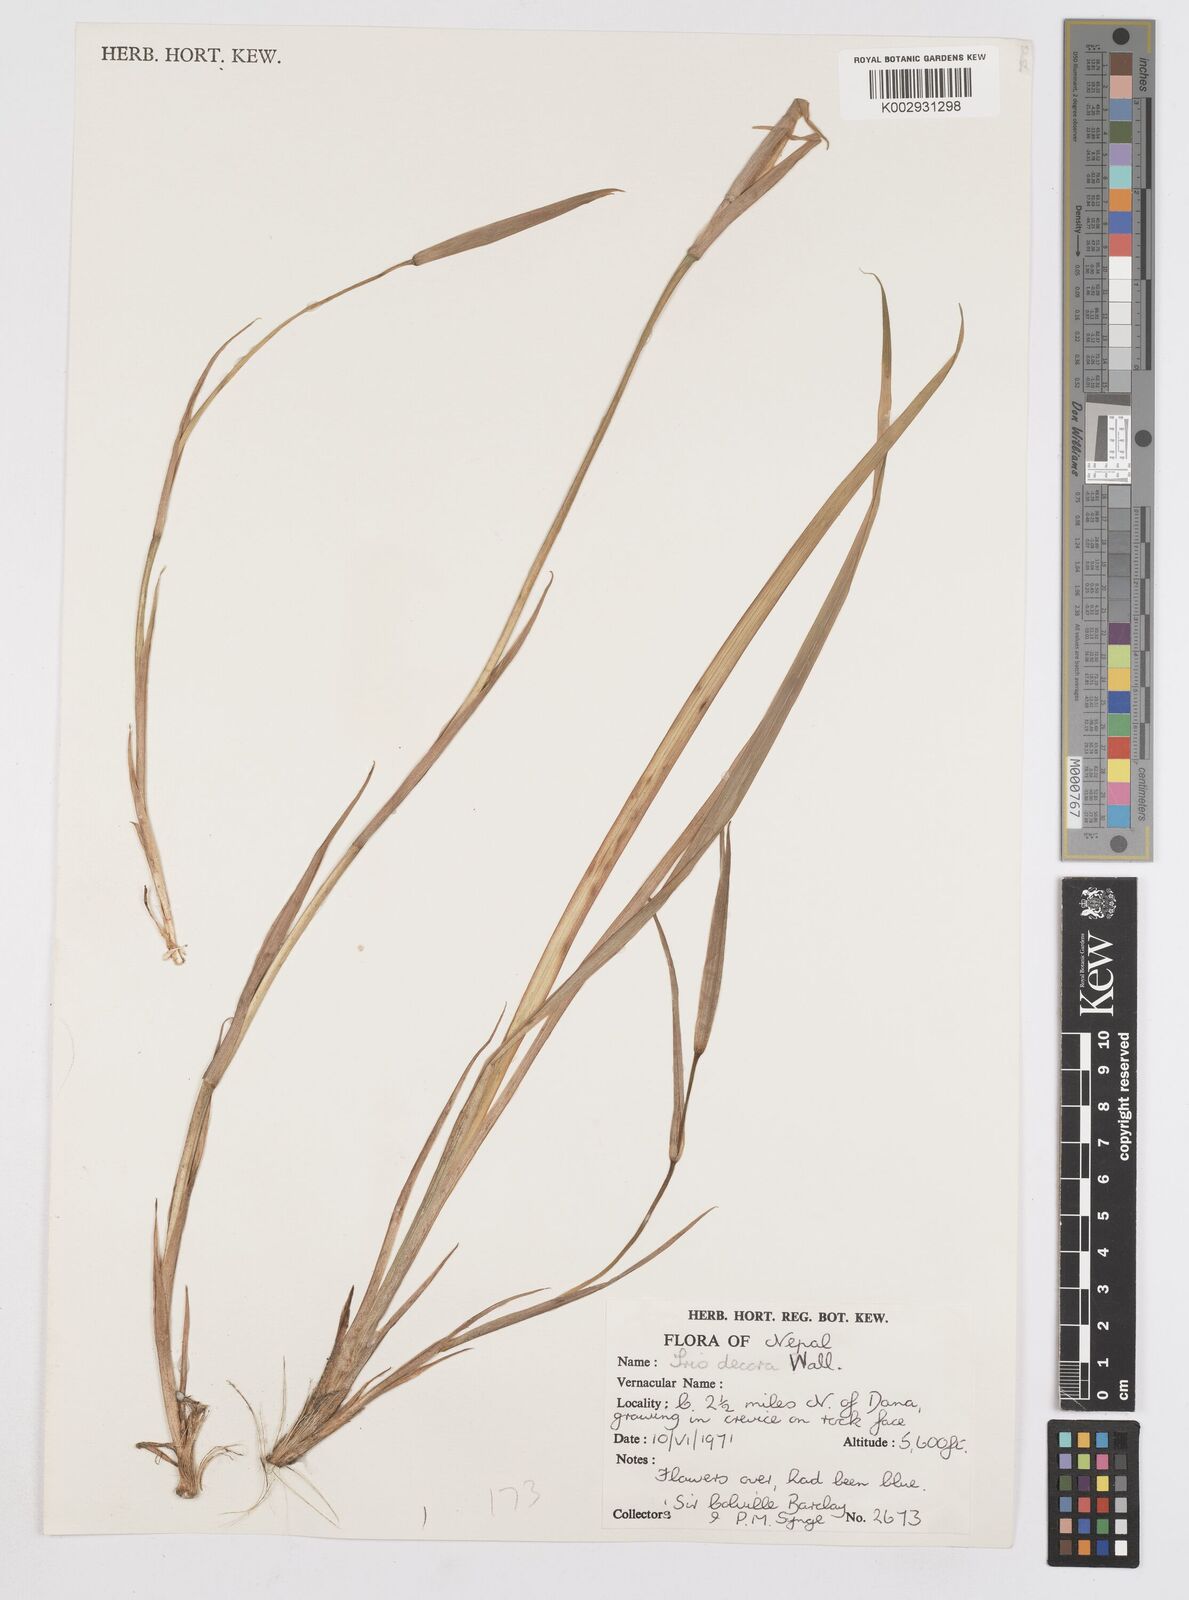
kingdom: Plantae
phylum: Tracheophyta
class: Liliopsida
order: Asparagales
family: Iridaceae
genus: Iris
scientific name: Iris decora
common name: Nepal iris
